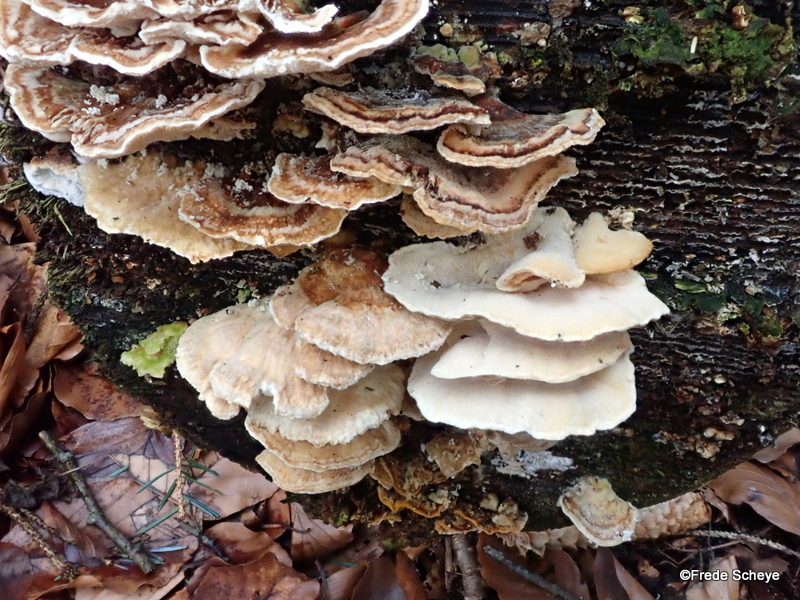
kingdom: Fungi
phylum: Basidiomycota
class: Agaricomycetes
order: Polyporales
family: Polyporaceae
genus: Trametes
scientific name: Trametes ochracea
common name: bæltet læderporesvamp
